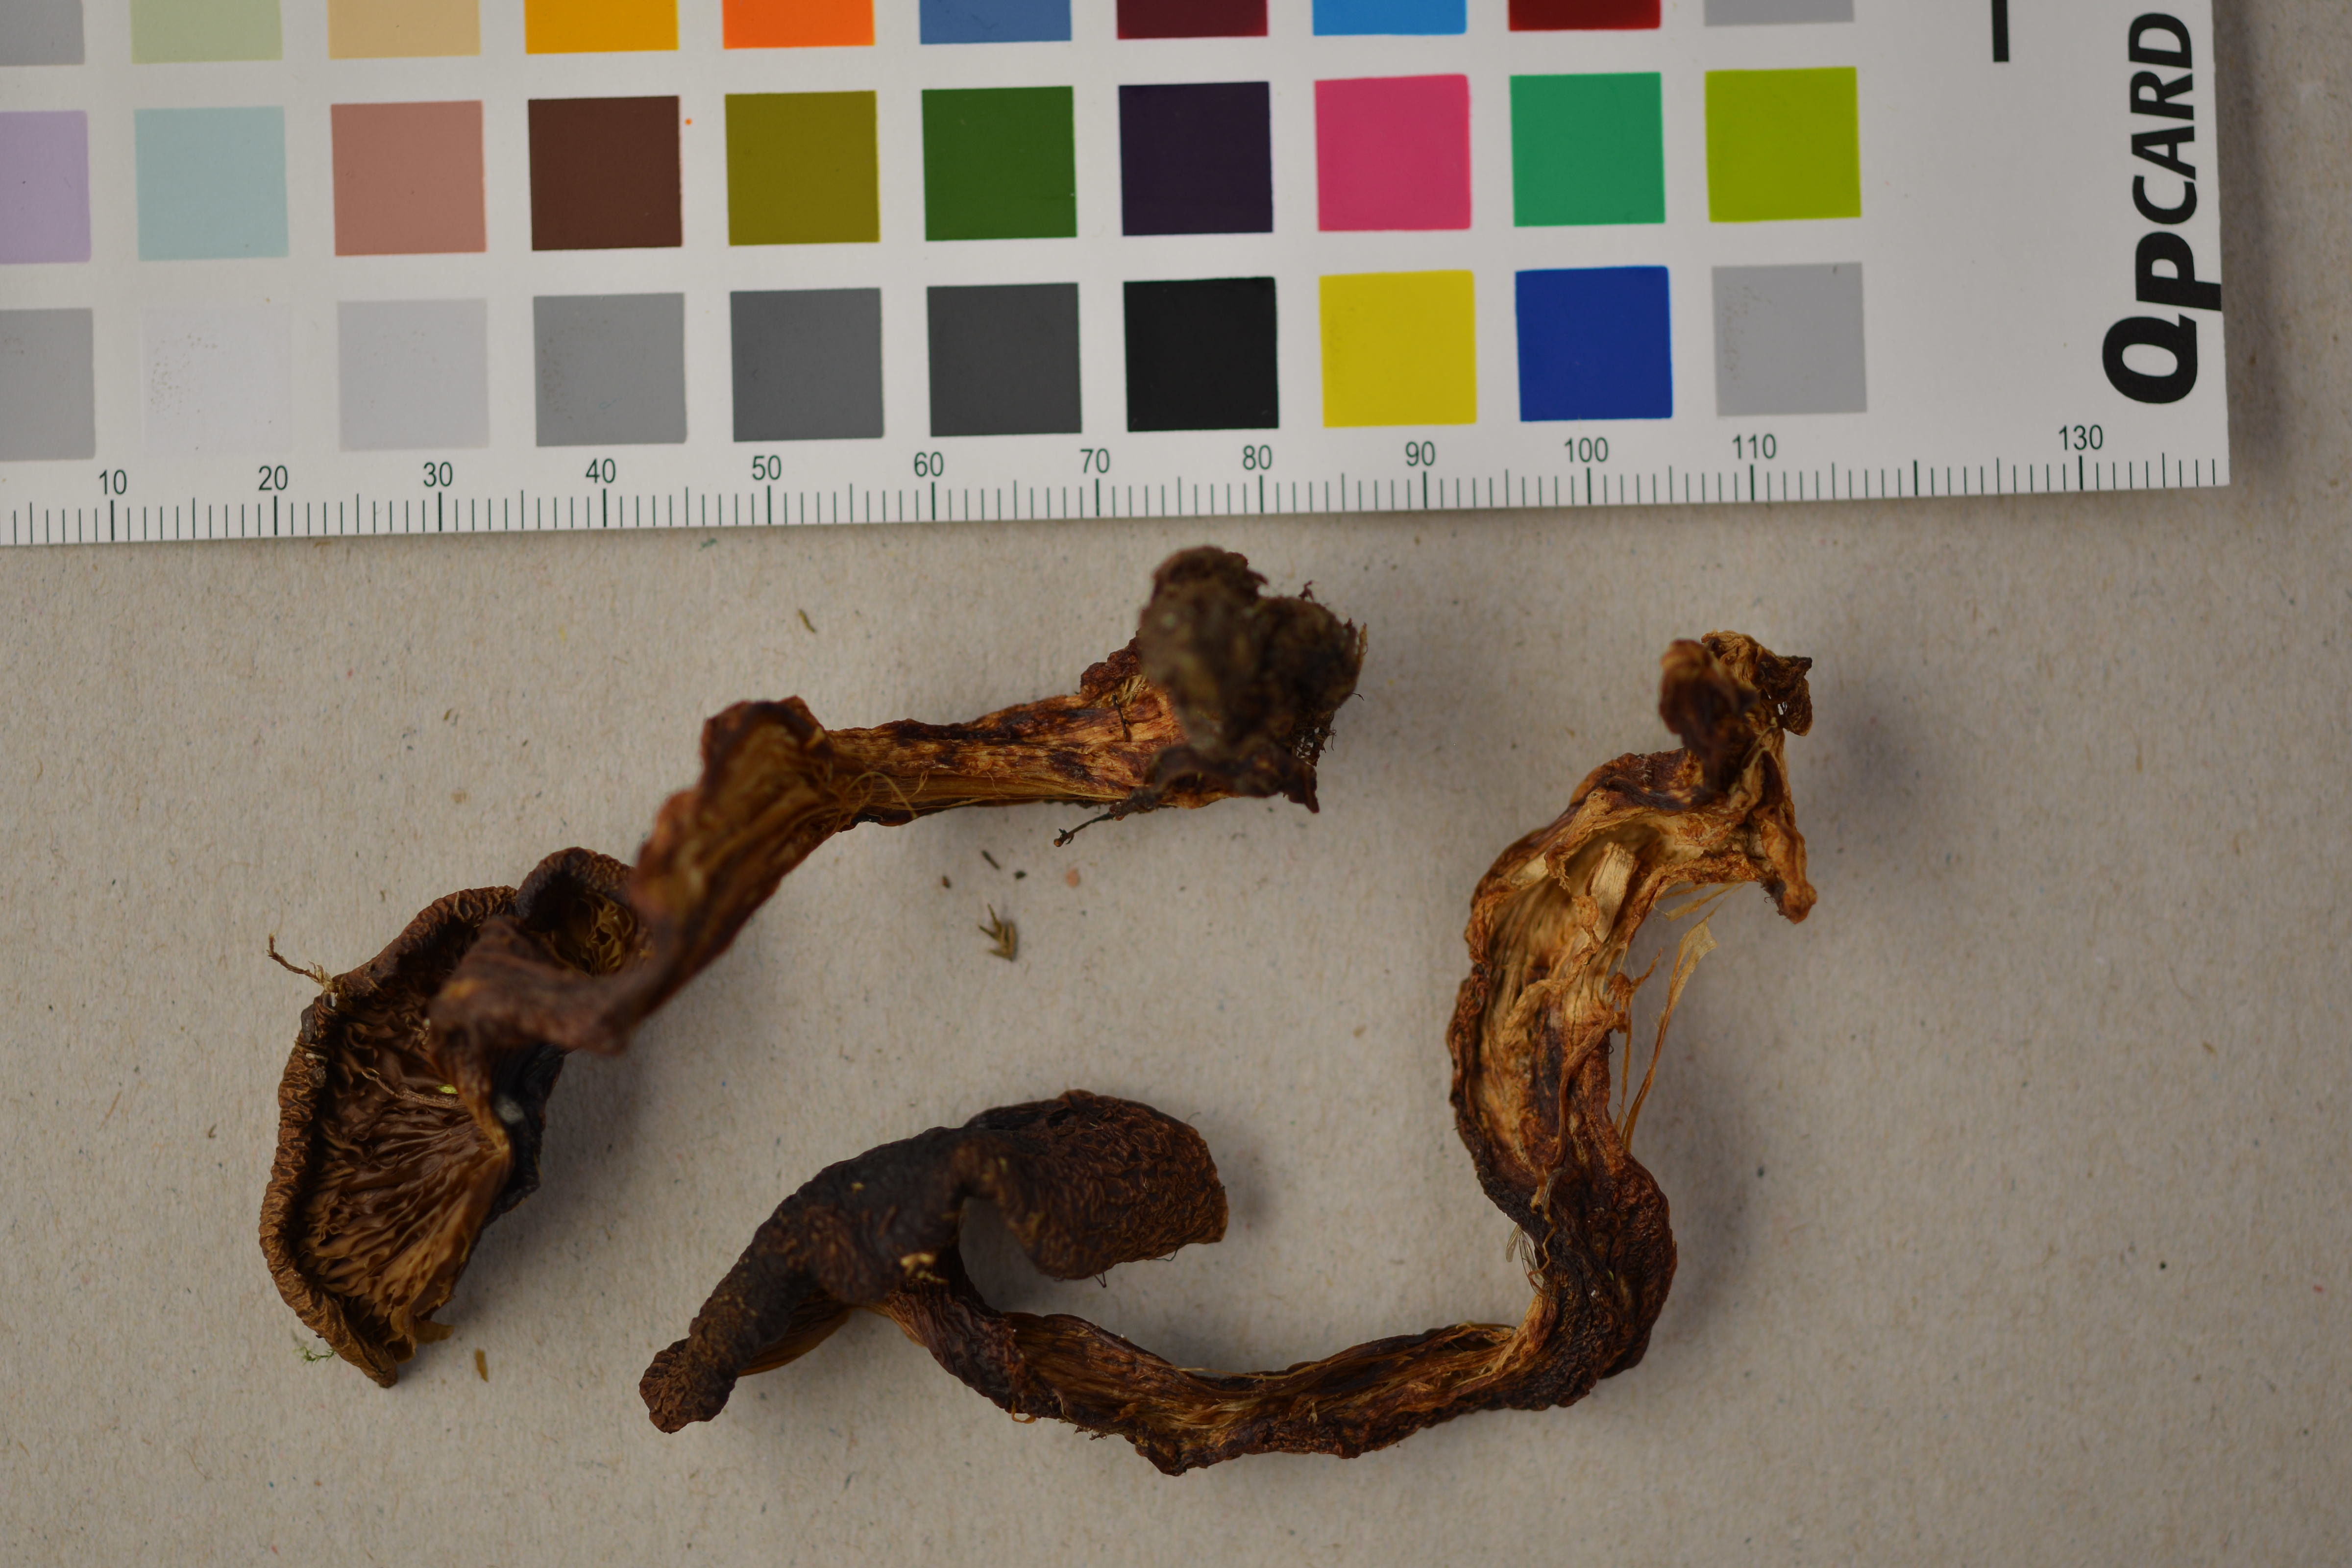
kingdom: Fungi
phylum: Basidiomycota
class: Agaricomycetes
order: Agaricales
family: Lyophyllaceae
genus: Lyophyllum
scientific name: Lyophyllum decastes
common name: Clustered domecap
